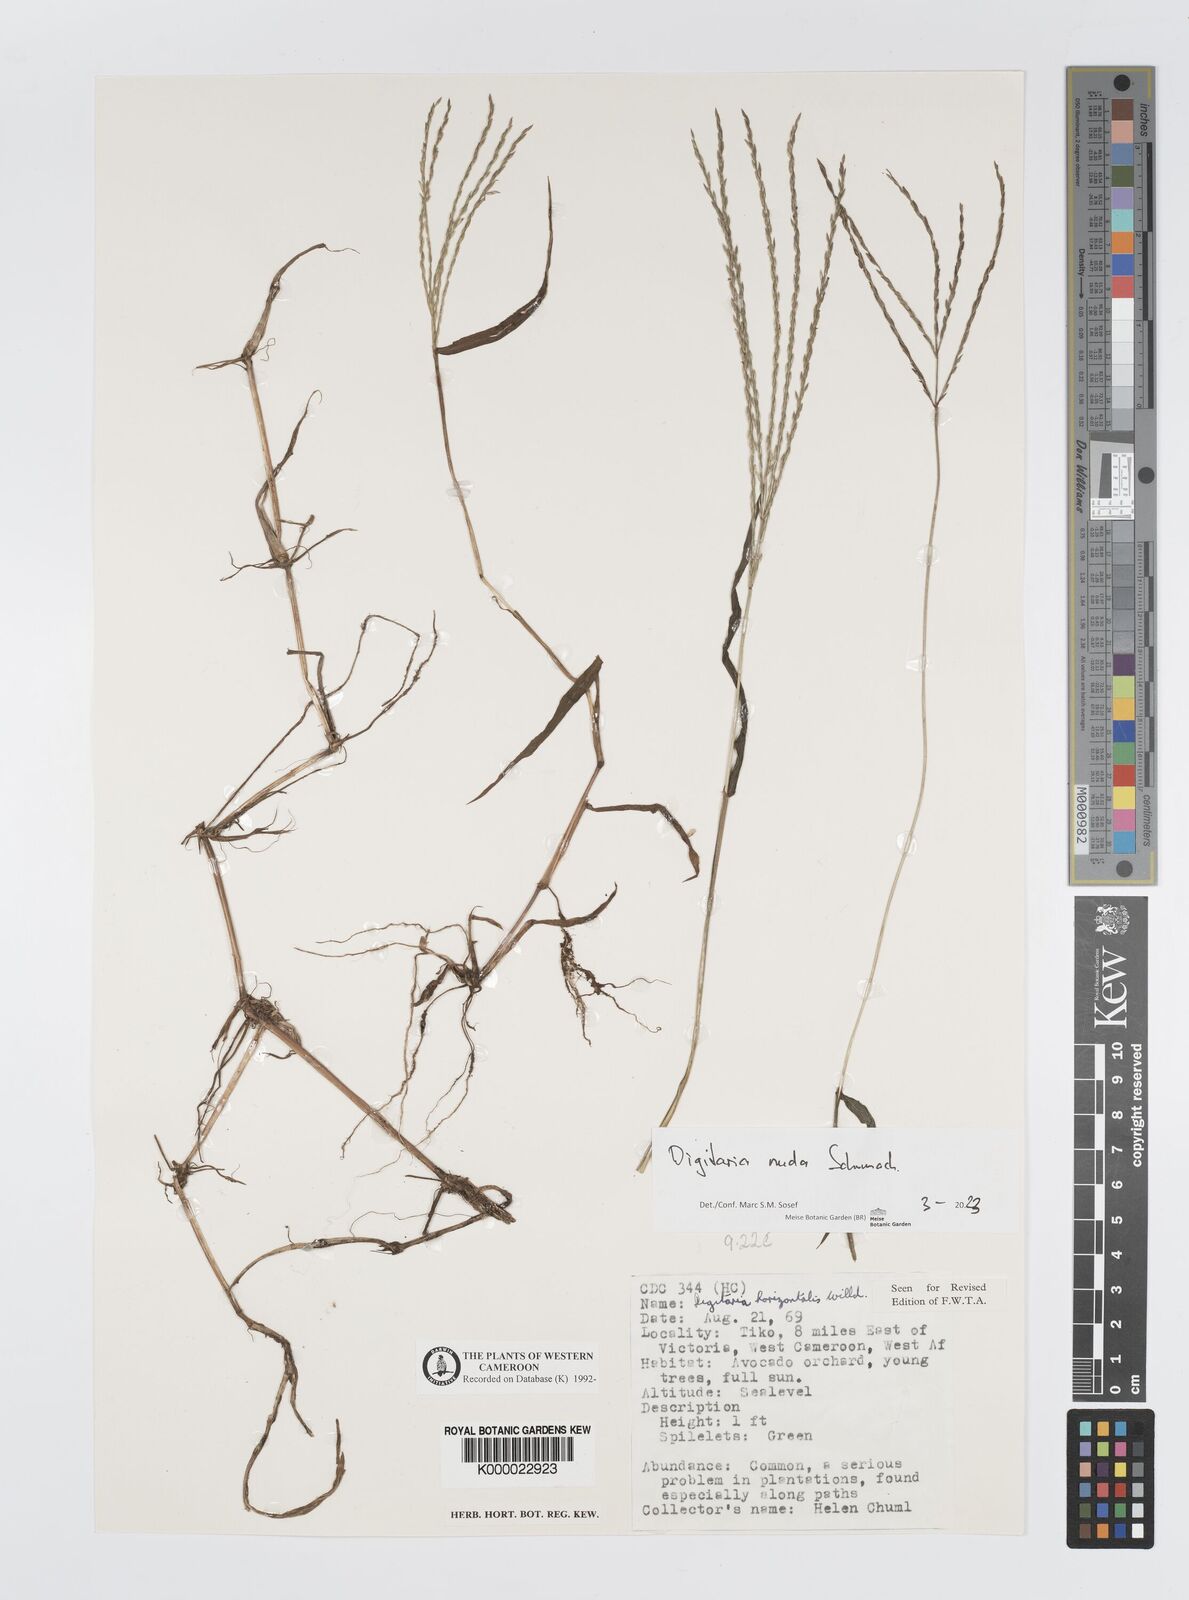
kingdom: Plantae
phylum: Tracheophyta
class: Liliopsida
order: Poales
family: Poaceae
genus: Digitaria
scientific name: Digitaria horizontalis
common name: Jamaican crabgrass
